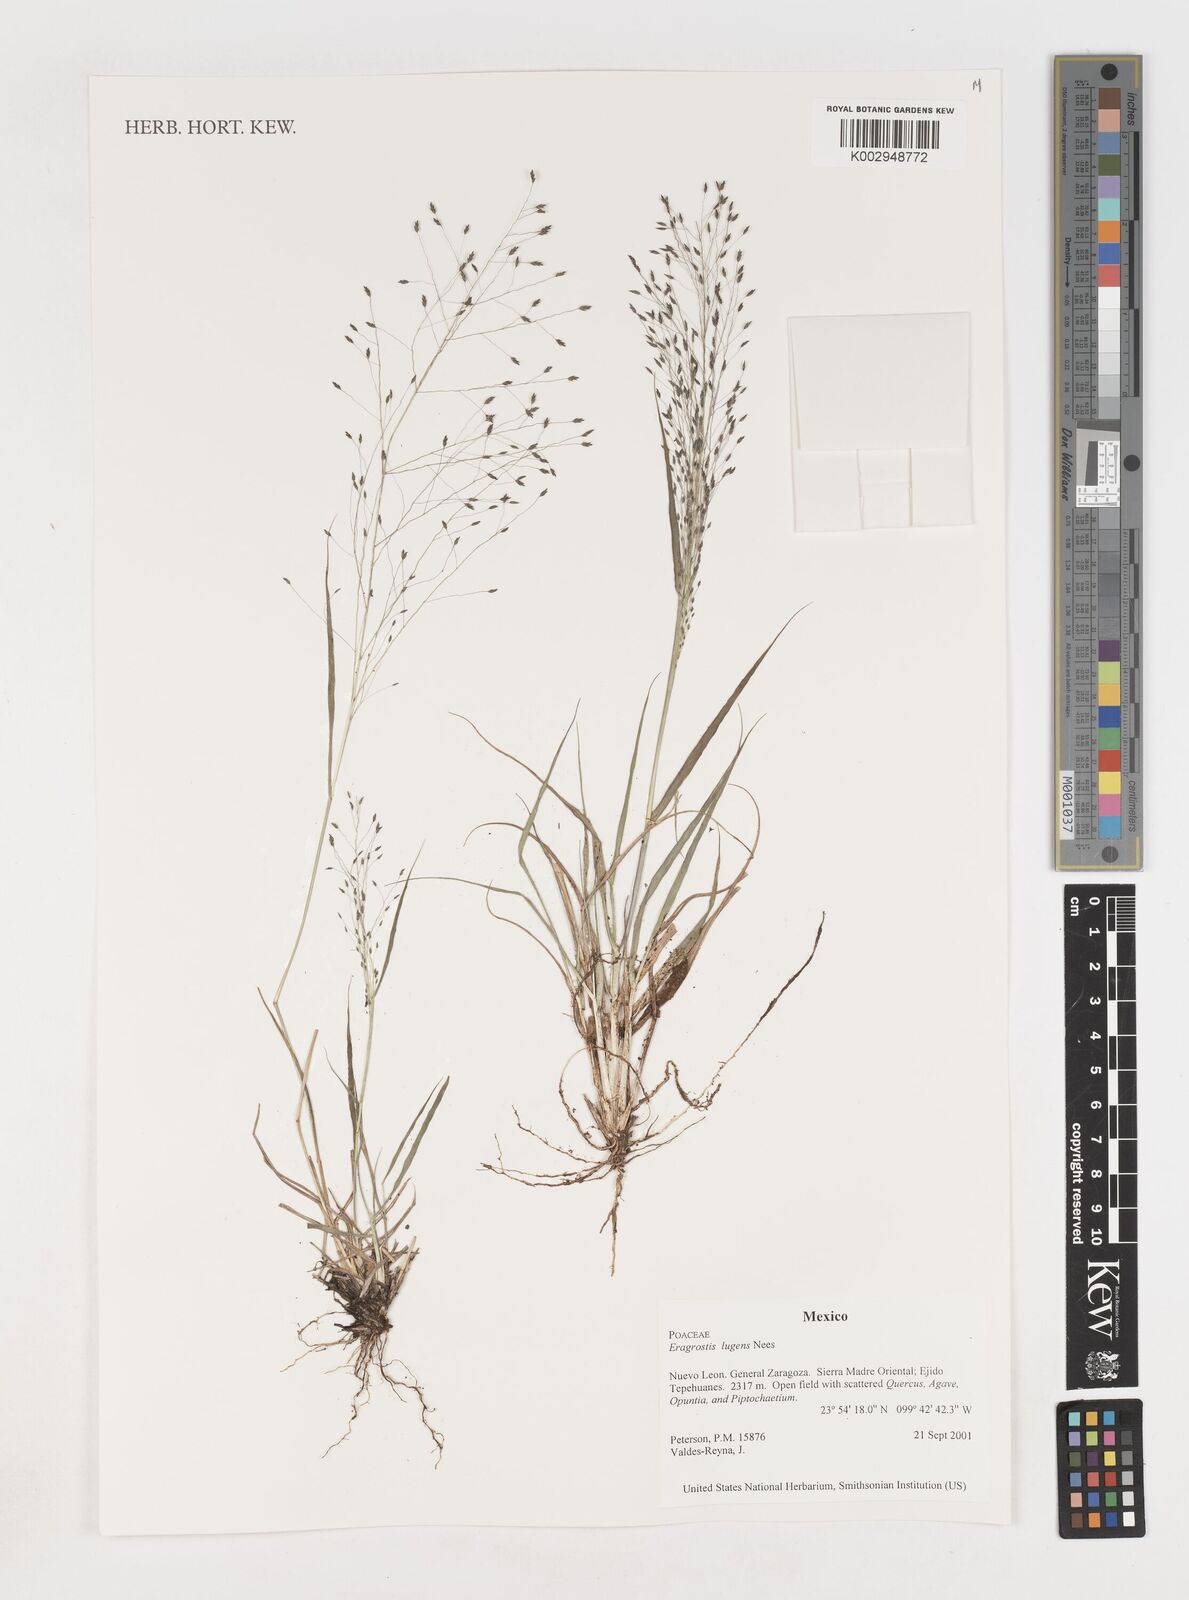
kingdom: Plantae
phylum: Tracheophyta
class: Liliopsida
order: Poales
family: Poaceae
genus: Eragrostis
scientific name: Eragrostis
